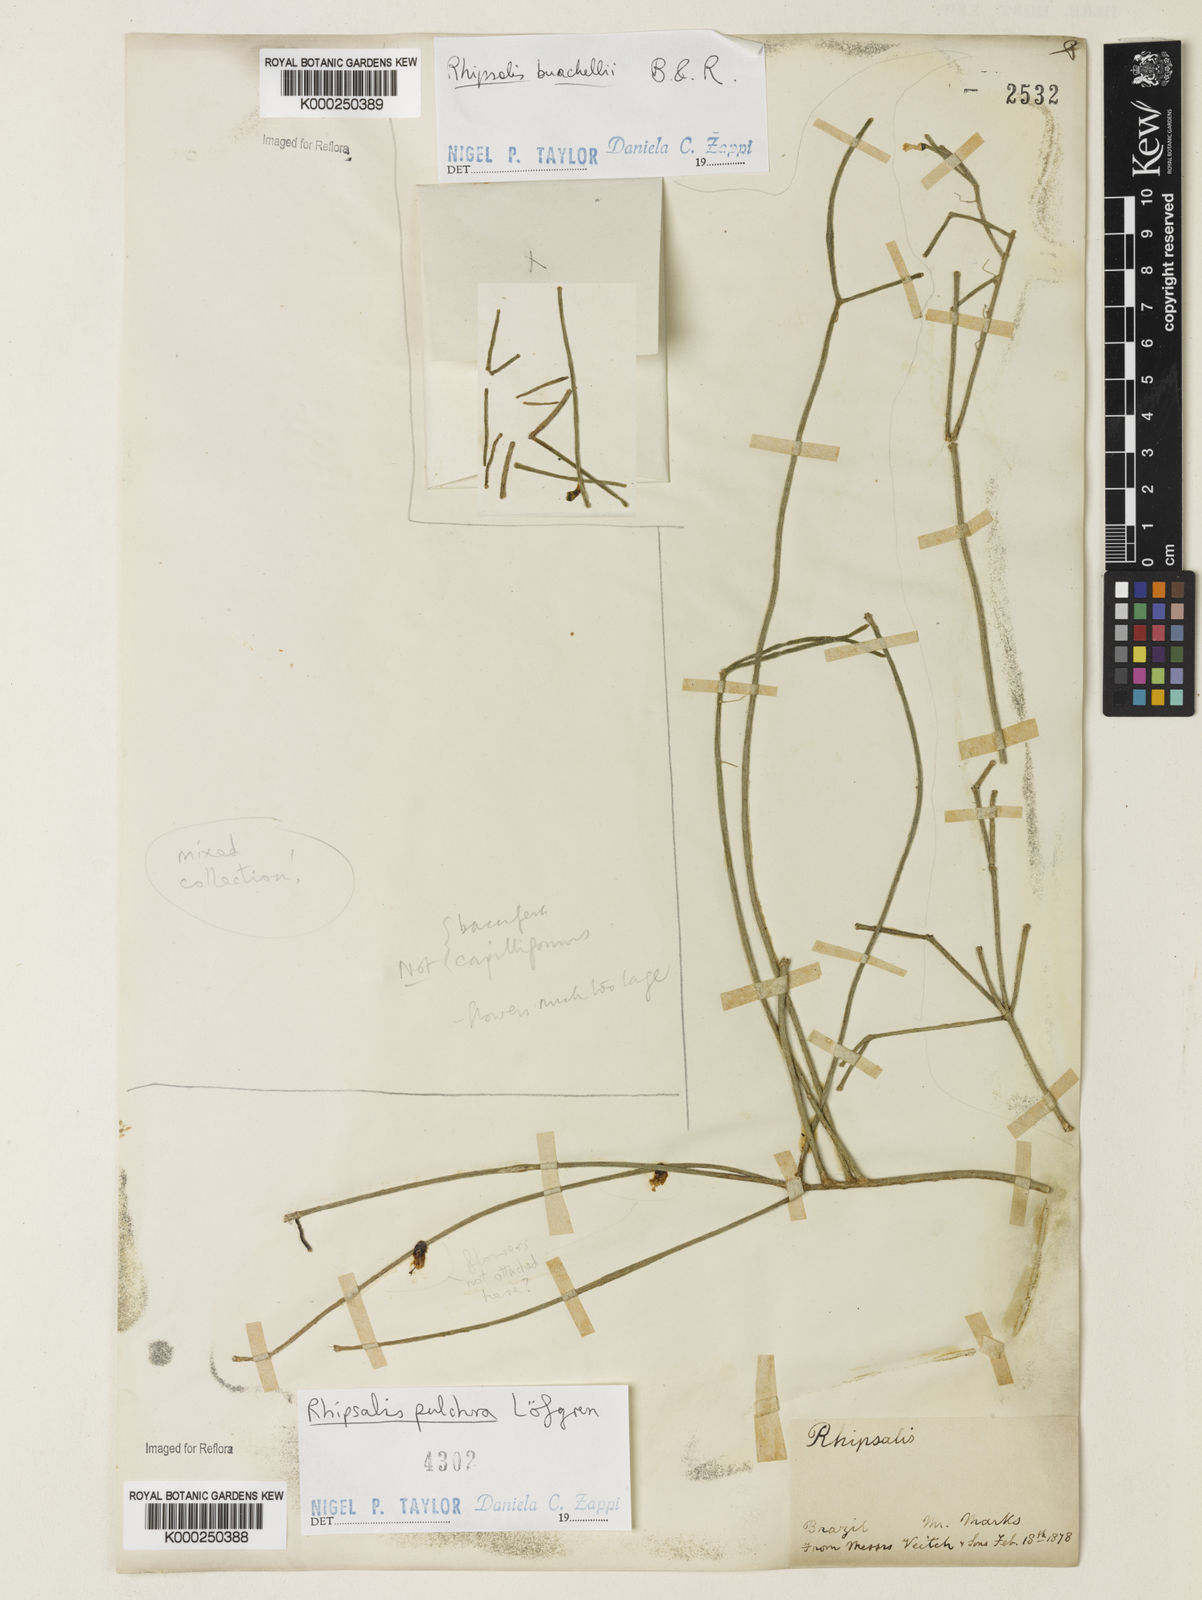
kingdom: Plantae
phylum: Tracheophyta
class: Magnoliopsida
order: Caryophyllales
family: Cactaceae
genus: Rhipsalis
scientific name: Rhipsalis burchellii
